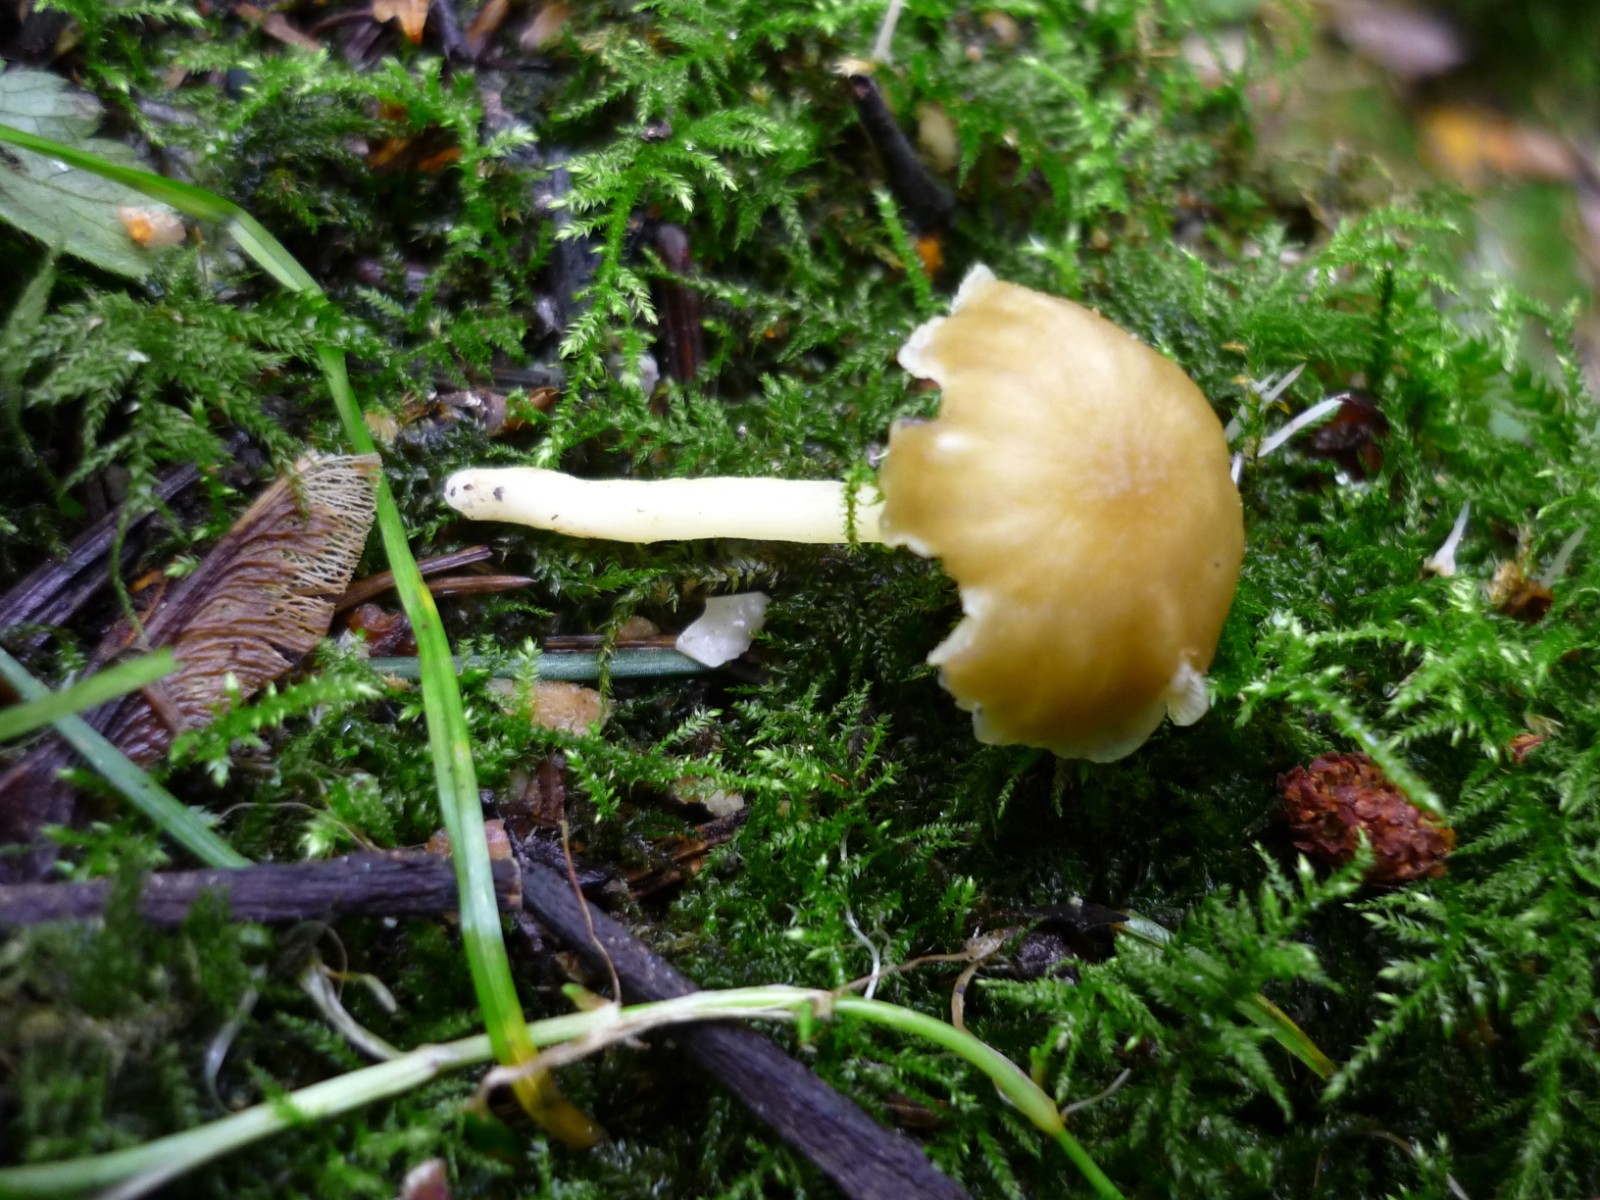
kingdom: Fungi
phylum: Basidiomycota
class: Agaricomycetes
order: Agaricales
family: Hygrophoraceae
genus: Chrysomphalina
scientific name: Chrysomphalina grossula
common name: stød-gyldenblad
